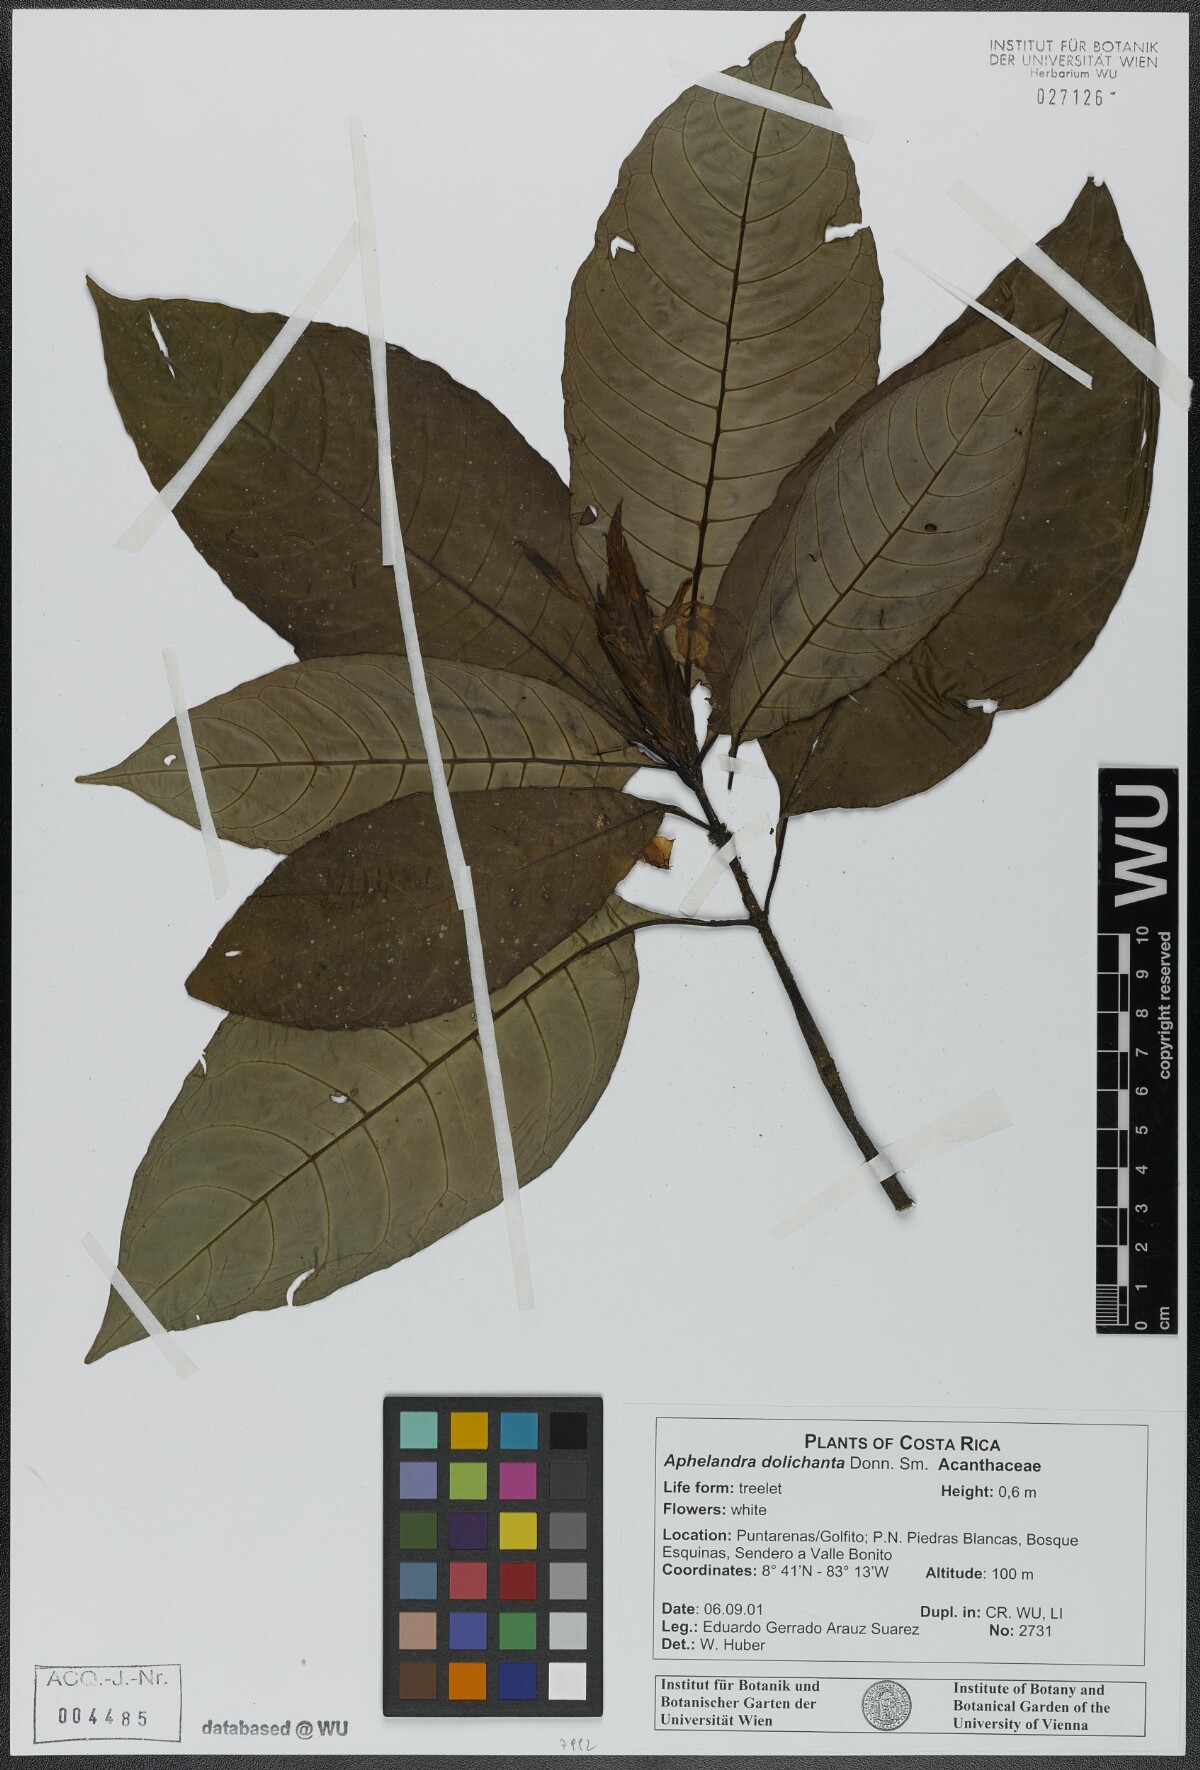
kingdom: Plantae
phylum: Tracheophyta
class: Magnoliopsida
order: Lamiales
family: Acanthaceae
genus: Aphelandra
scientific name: Aphelandra dolichantha
